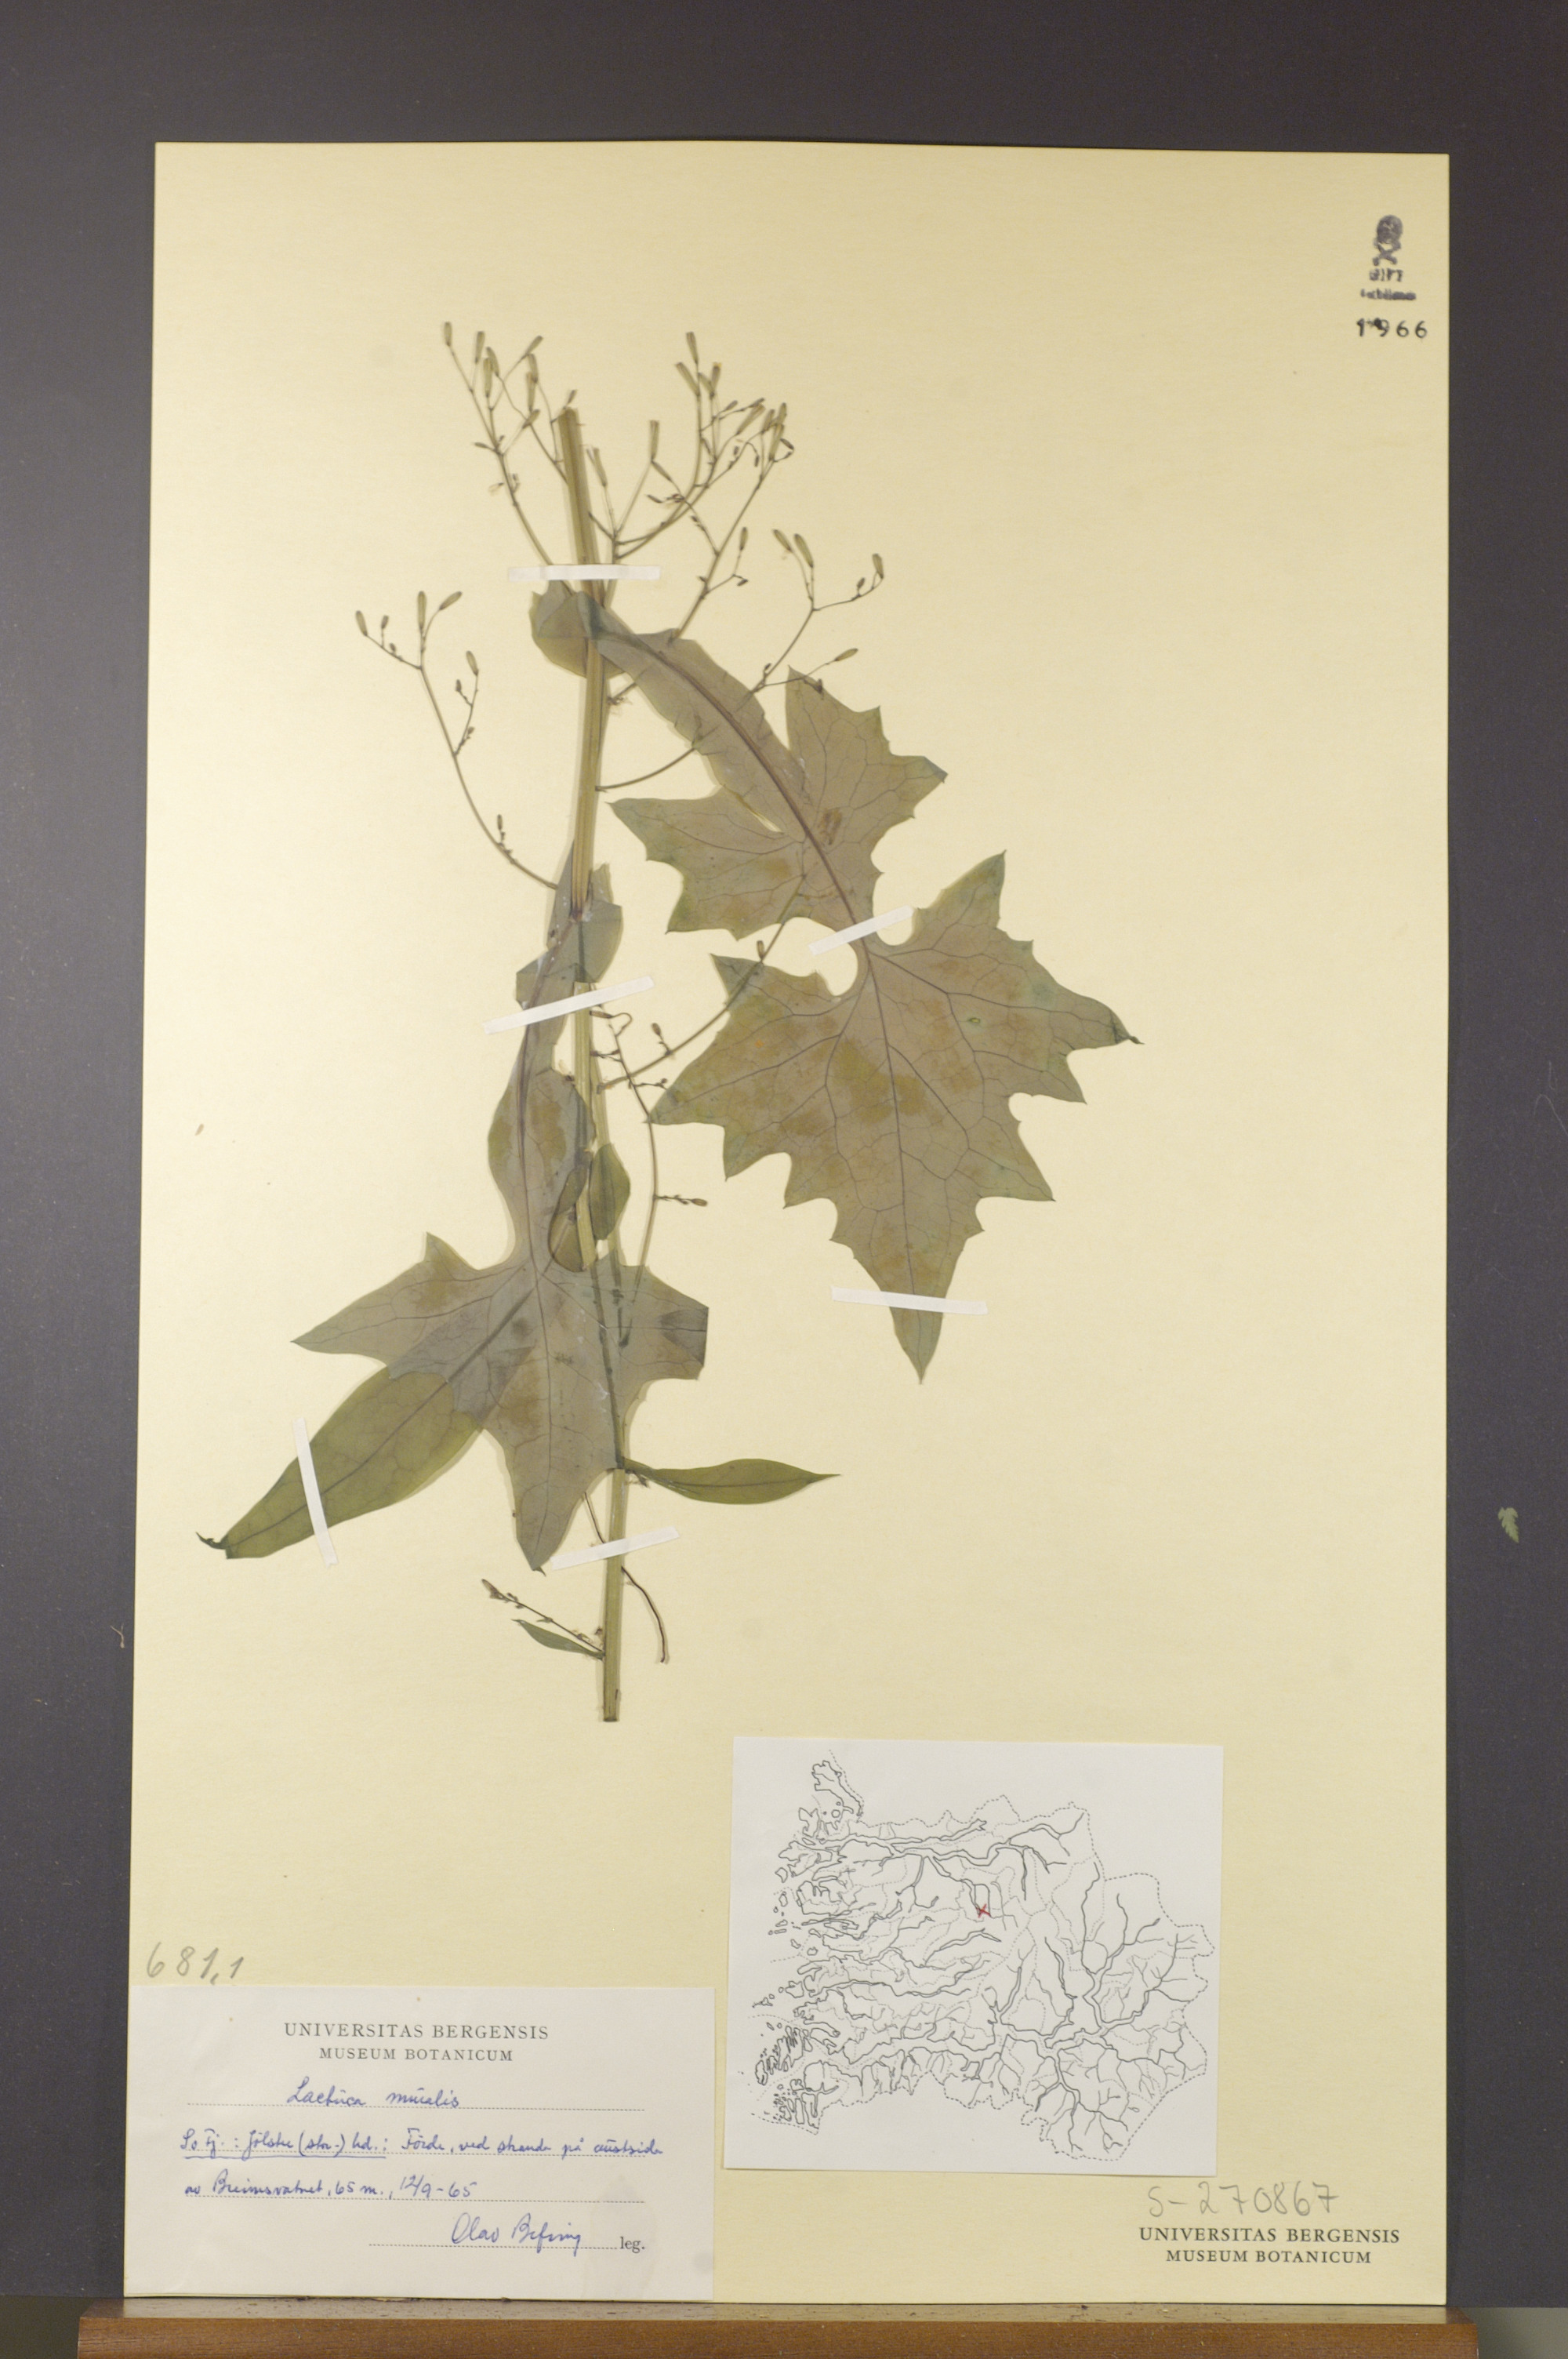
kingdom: Plantae
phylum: Tracheophyta
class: Magnoliopsida
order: Asterales
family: Asteraceae
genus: Mycelis
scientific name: Mycelis muralis
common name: Wall lettuce
